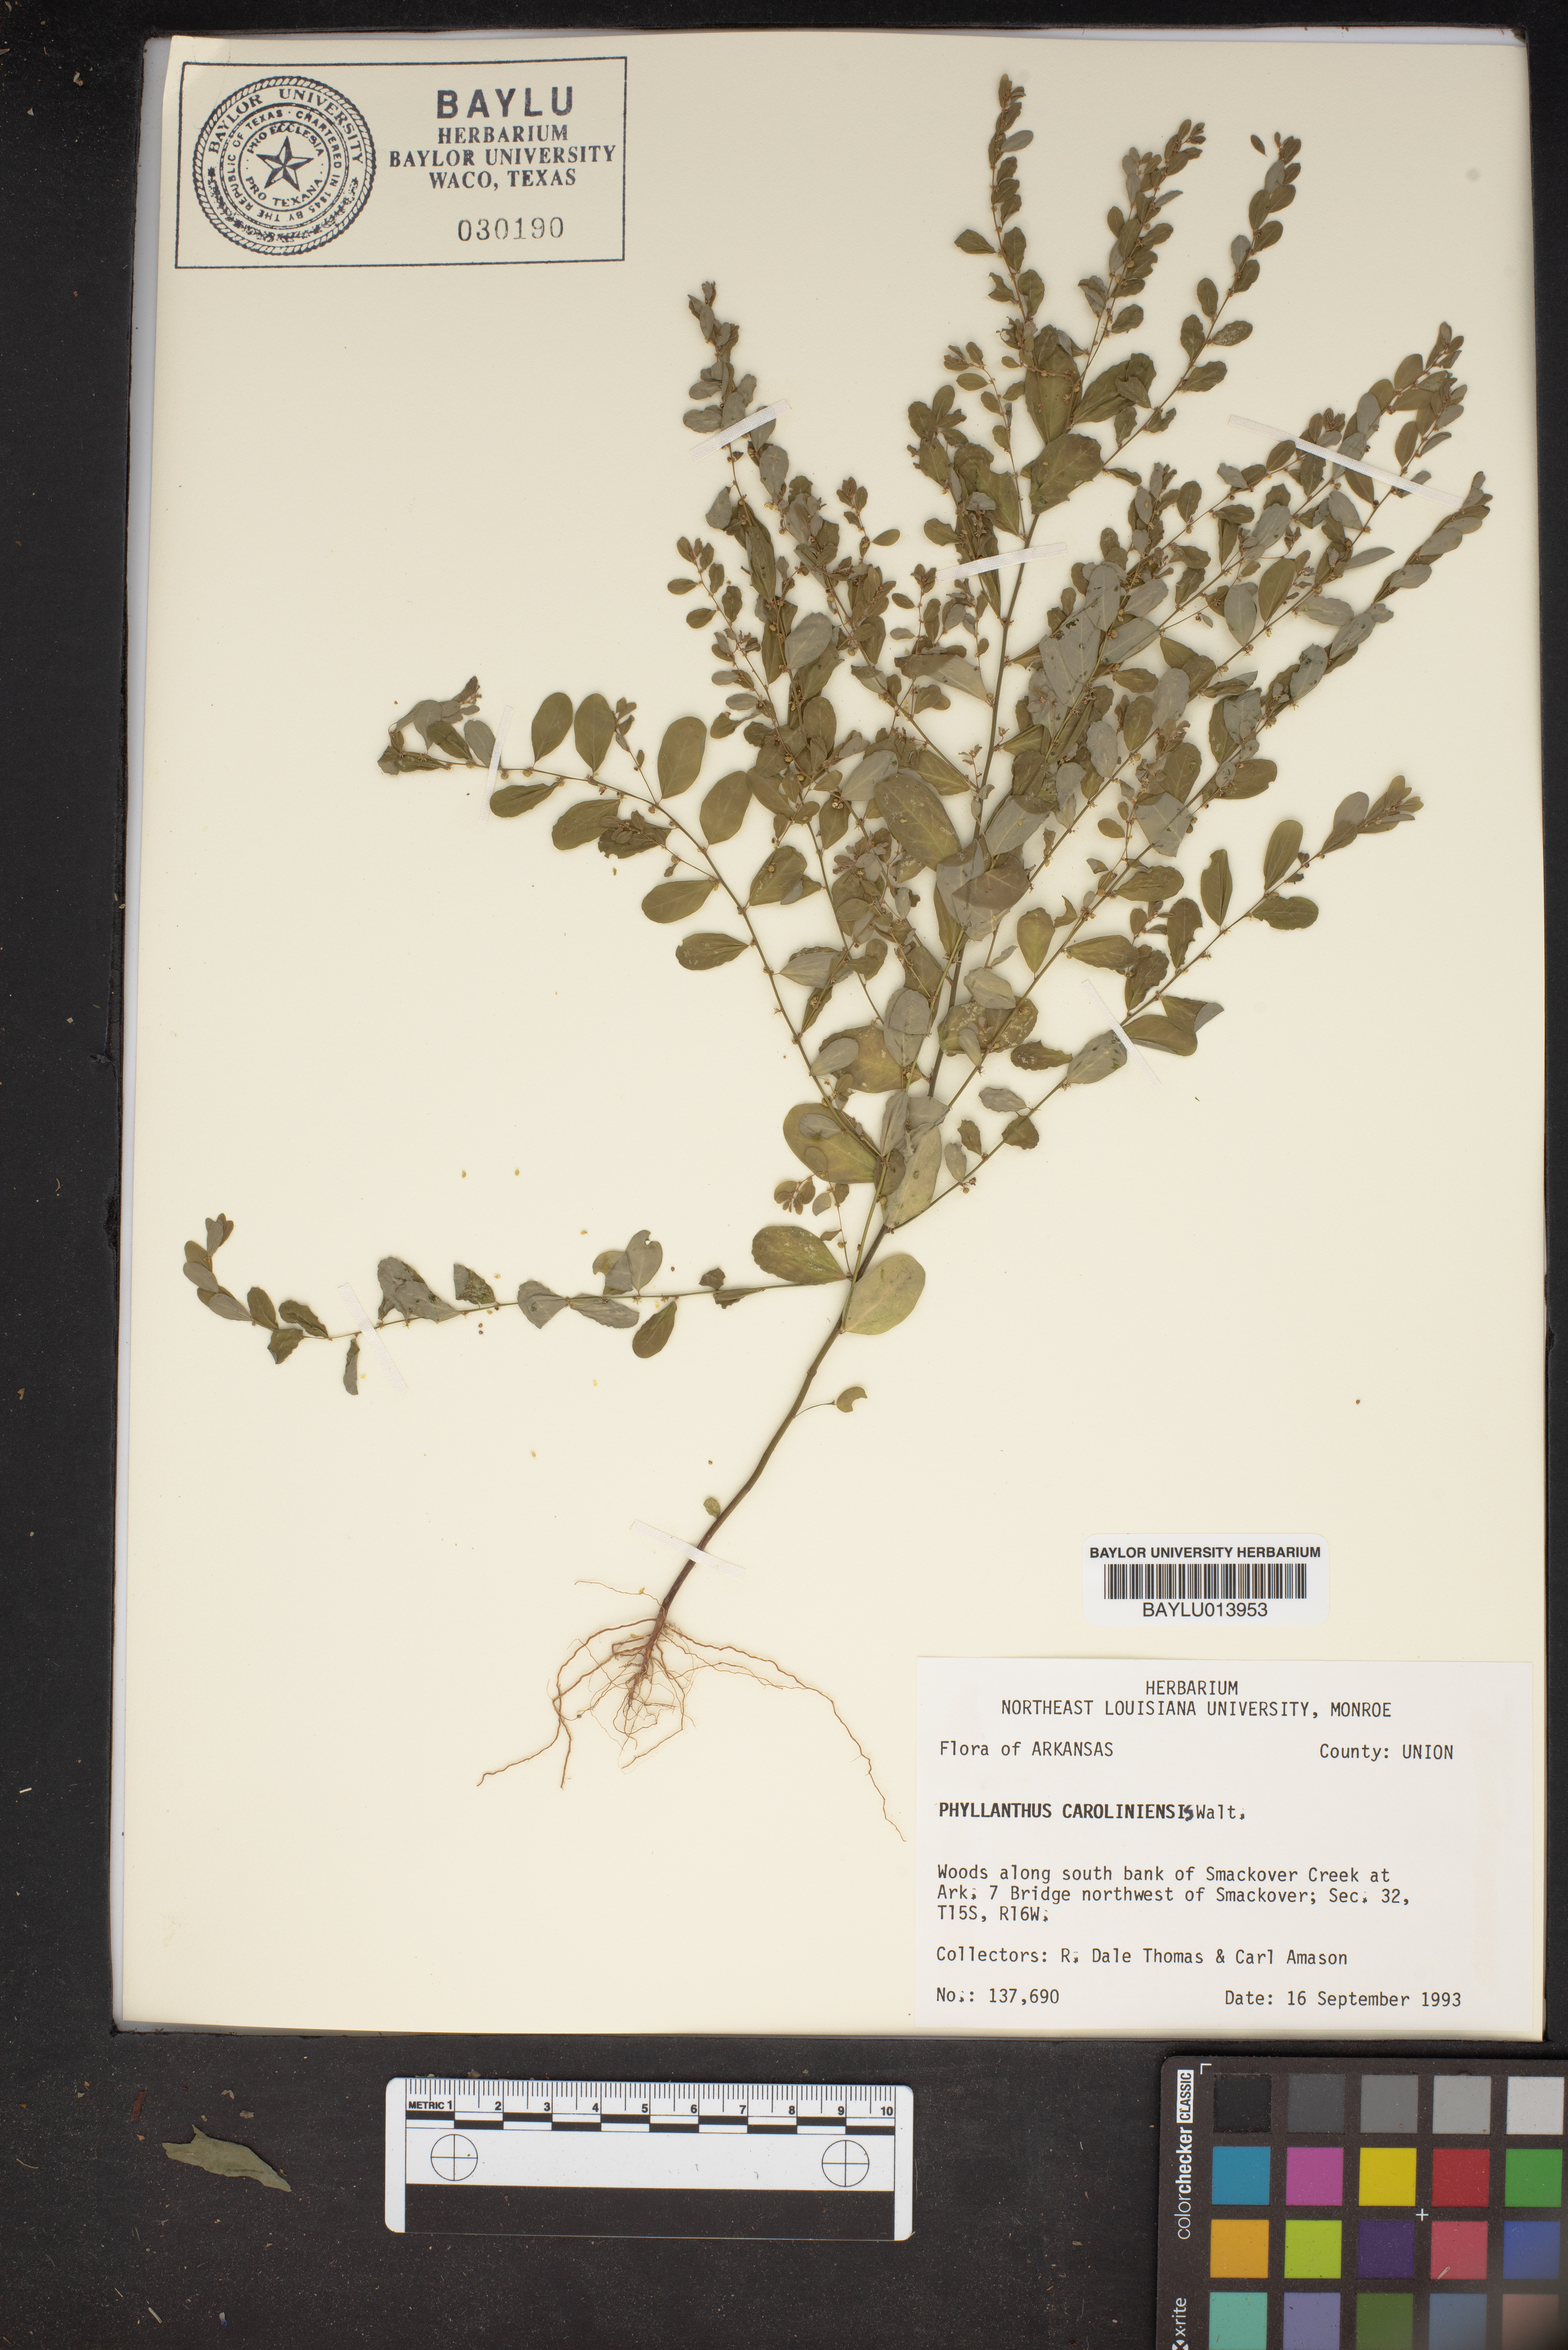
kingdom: Plantae
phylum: Tracheophyta
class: Magnoliopsida
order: Malpighiales
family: Phyllanthaceae
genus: Phyllanthus
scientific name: Phyllanthus carolinensis
